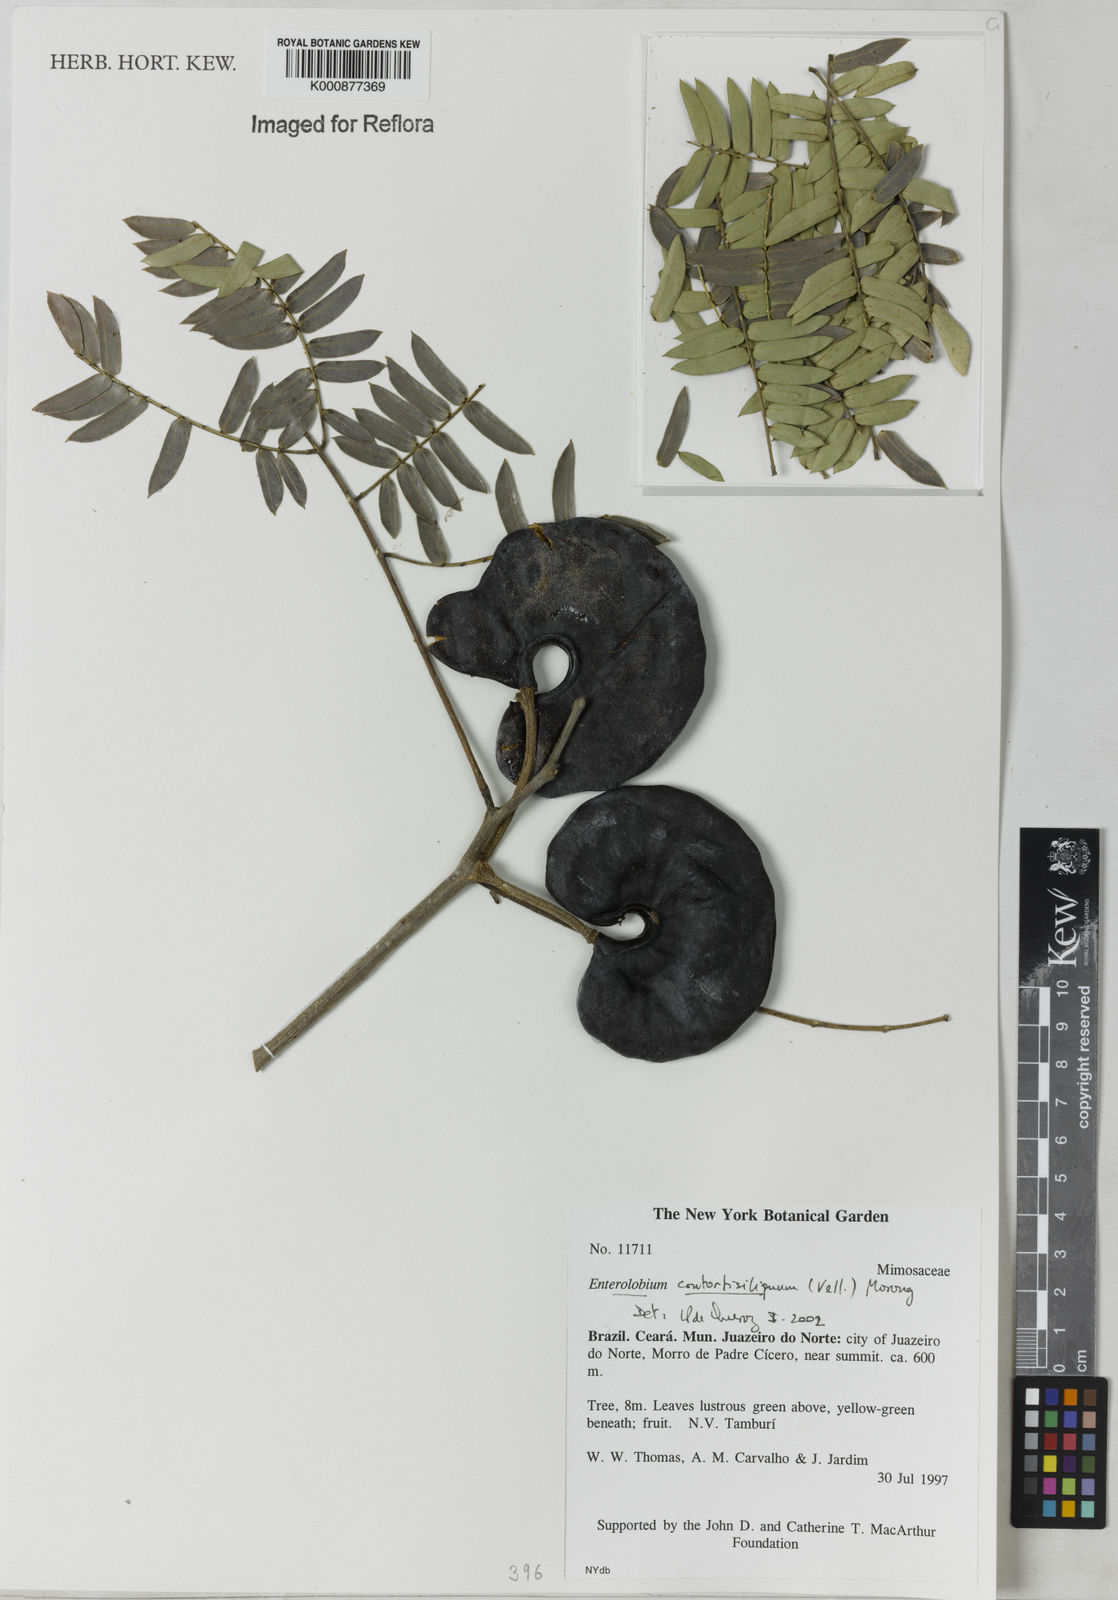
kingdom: Plantae
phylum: Tracheophyta
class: Magnoliopsida
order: Fabales
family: Fabaceae
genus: Enterolobium
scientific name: Enterolobium contortisiliquum
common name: Pacara earpod tree
